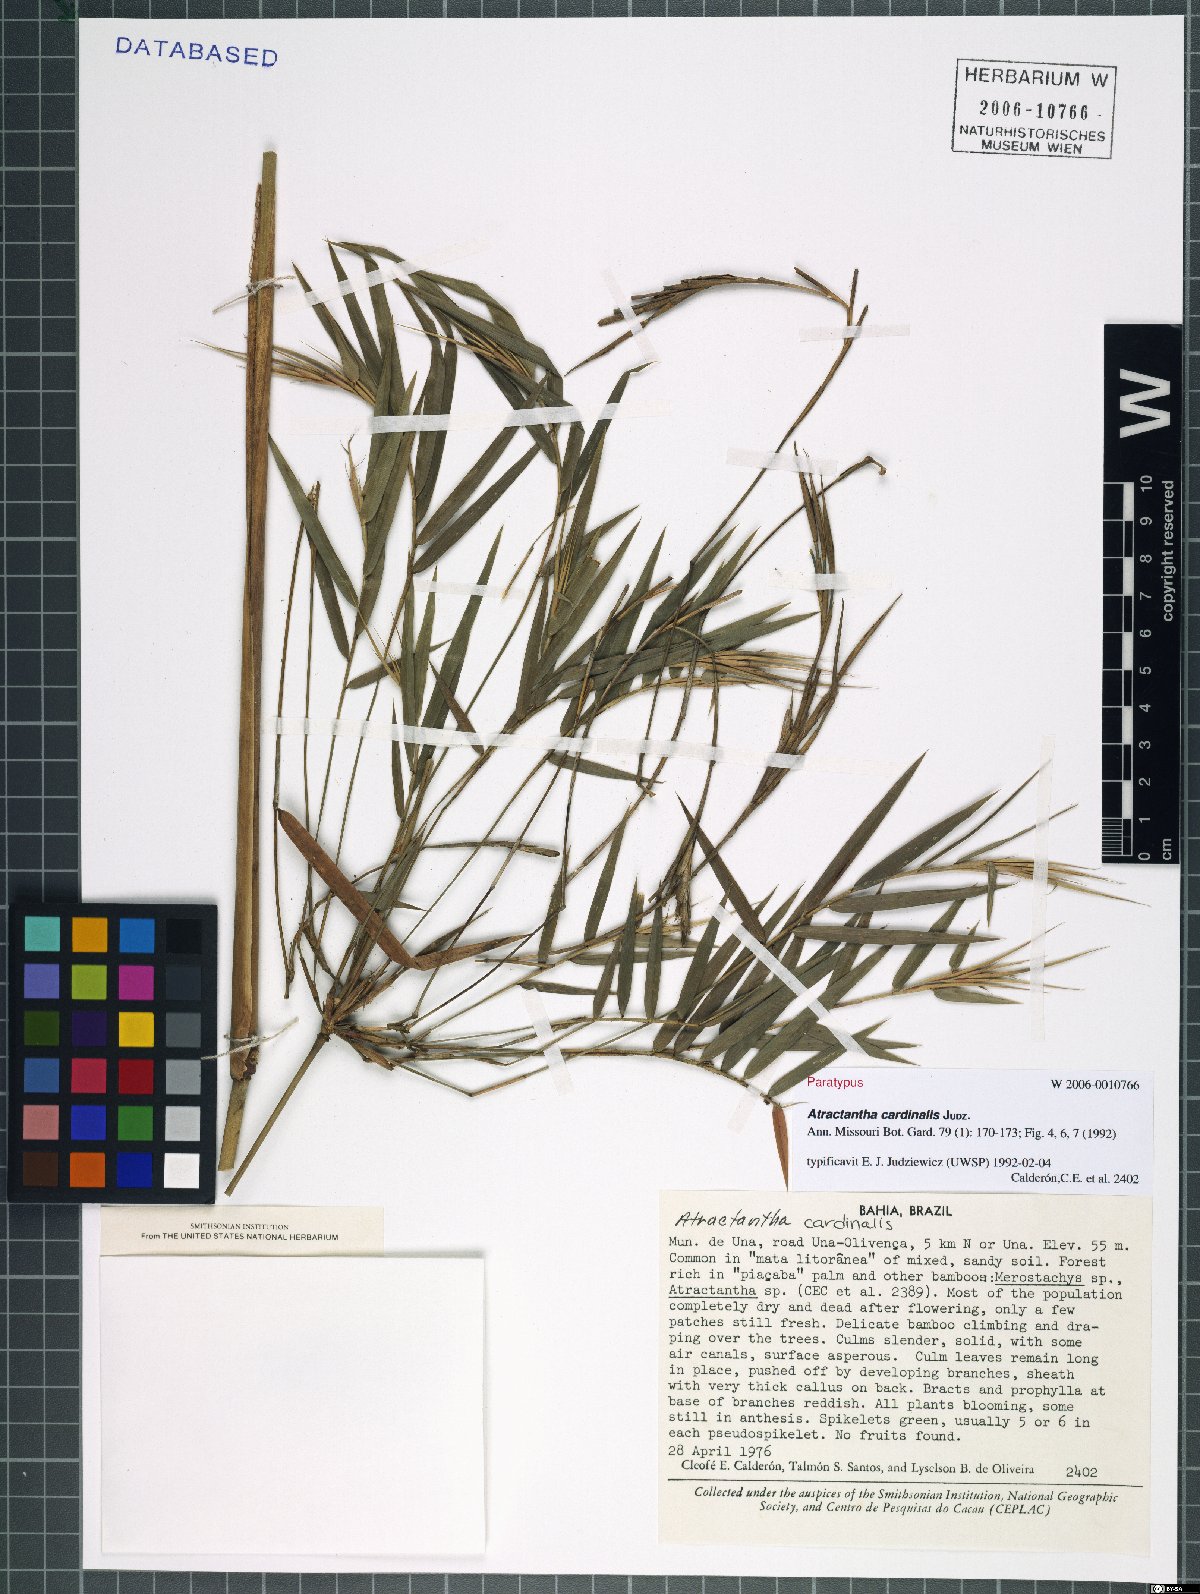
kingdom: Plantae
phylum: Tracheophyta
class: Liliopsida
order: Poales
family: Poaceae
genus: Atractantha
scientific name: Atractantha cardinalis
